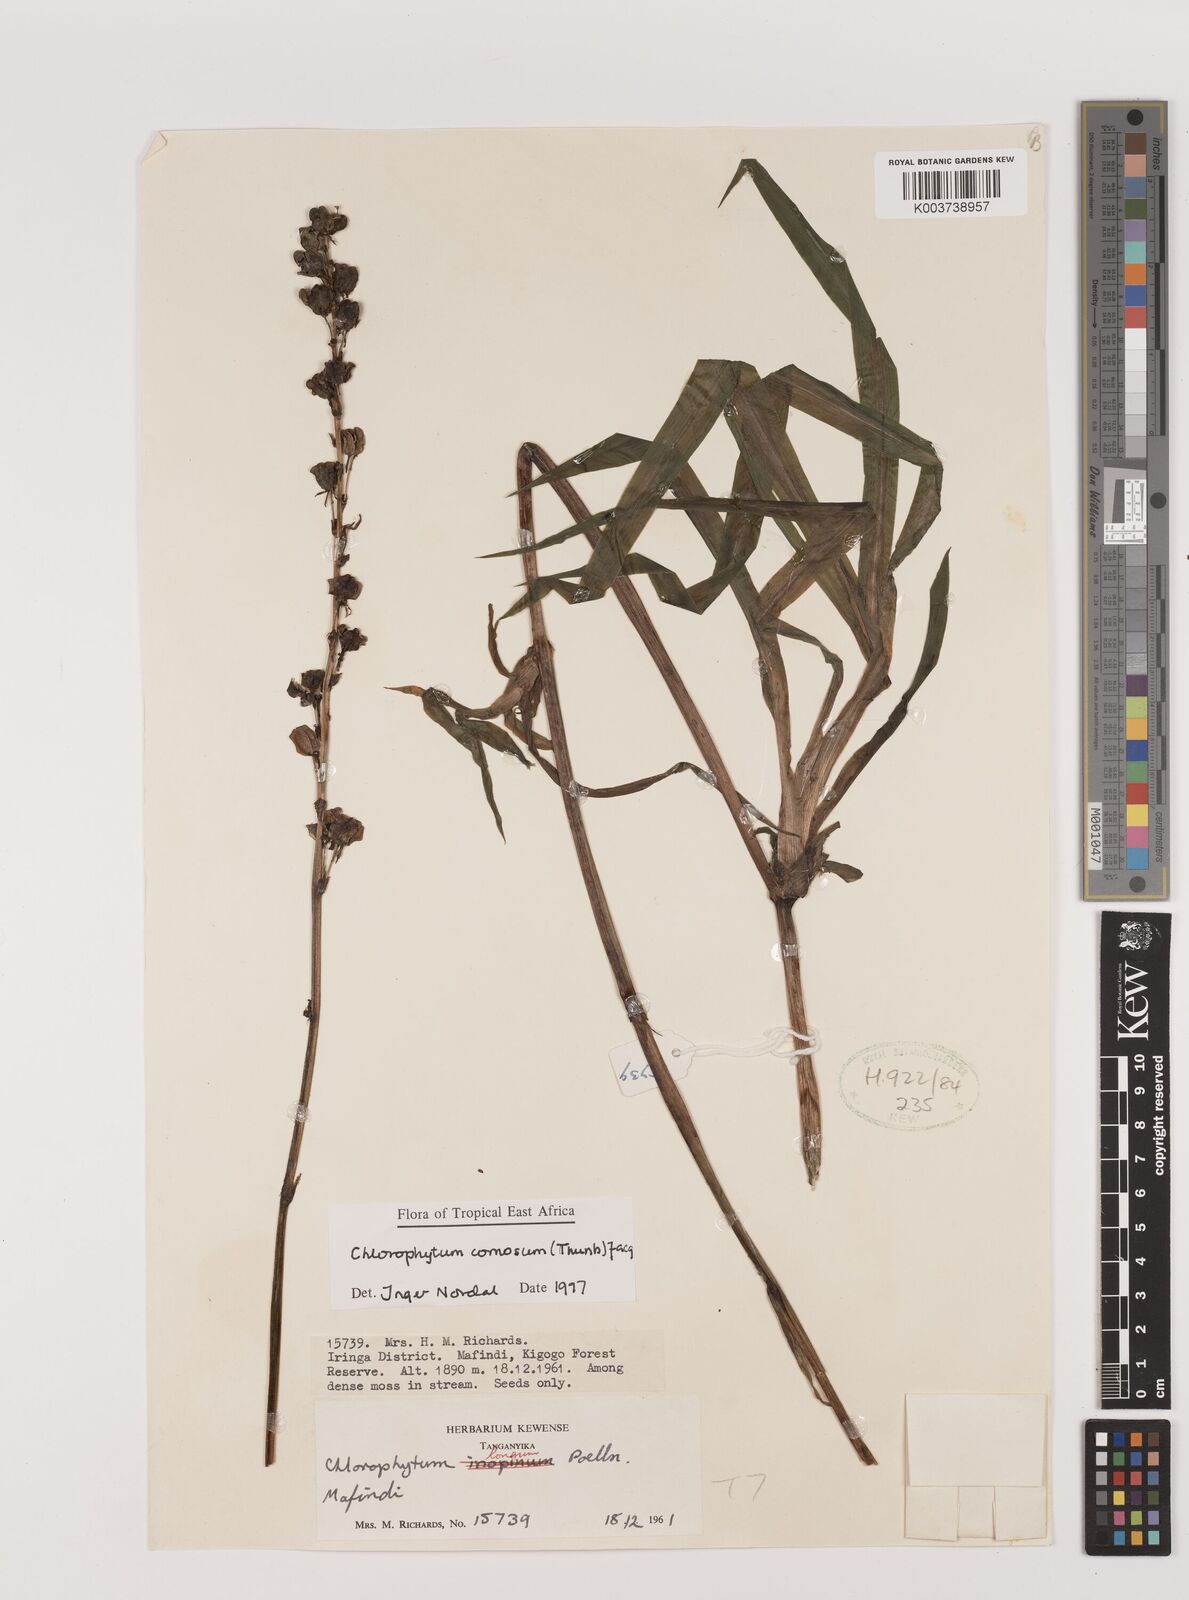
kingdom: Plantae
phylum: Tracheophyta
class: Liliopsida
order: Asparagales
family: Asparagaceae
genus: Chlorophytum
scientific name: Chlorophytum comosum
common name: Spider plant
